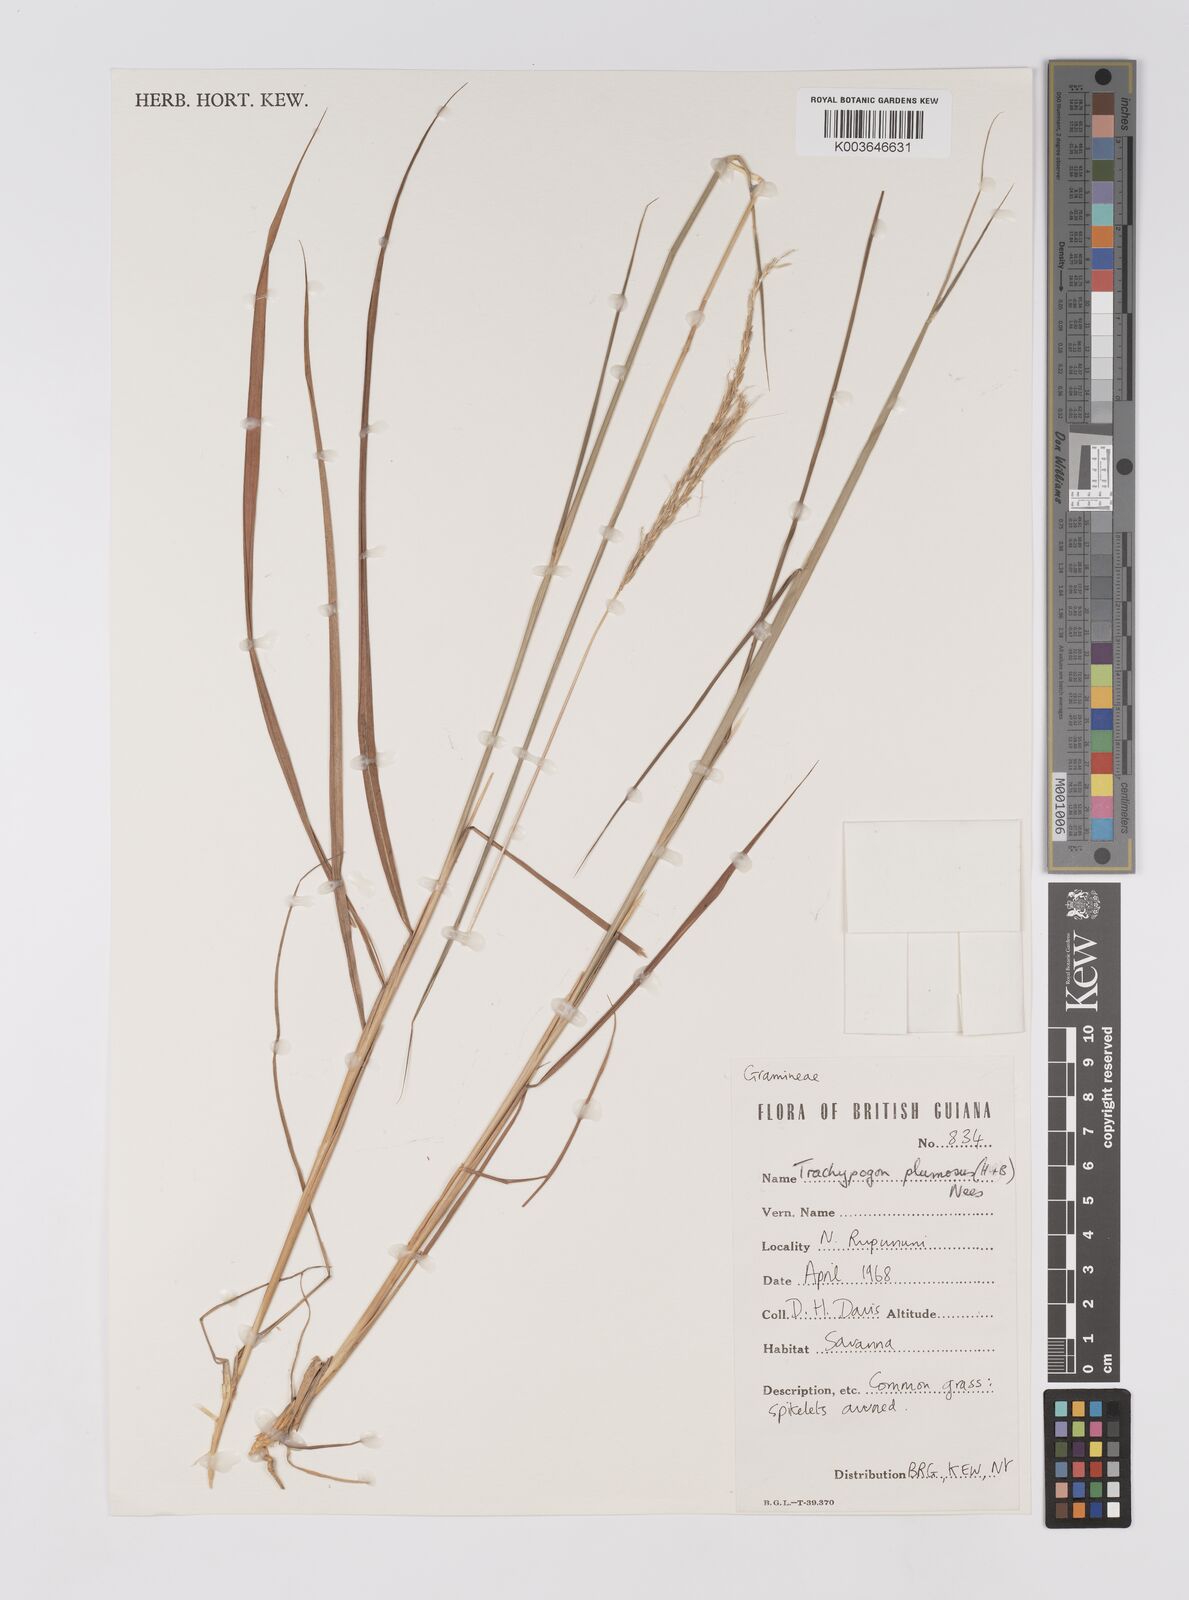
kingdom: Plantae
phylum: Tracheophyta
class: Liliopsida
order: Poales
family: Poaceae
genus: Trachypogon
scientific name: Trachypogon spicatus
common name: Crinkle-awn
